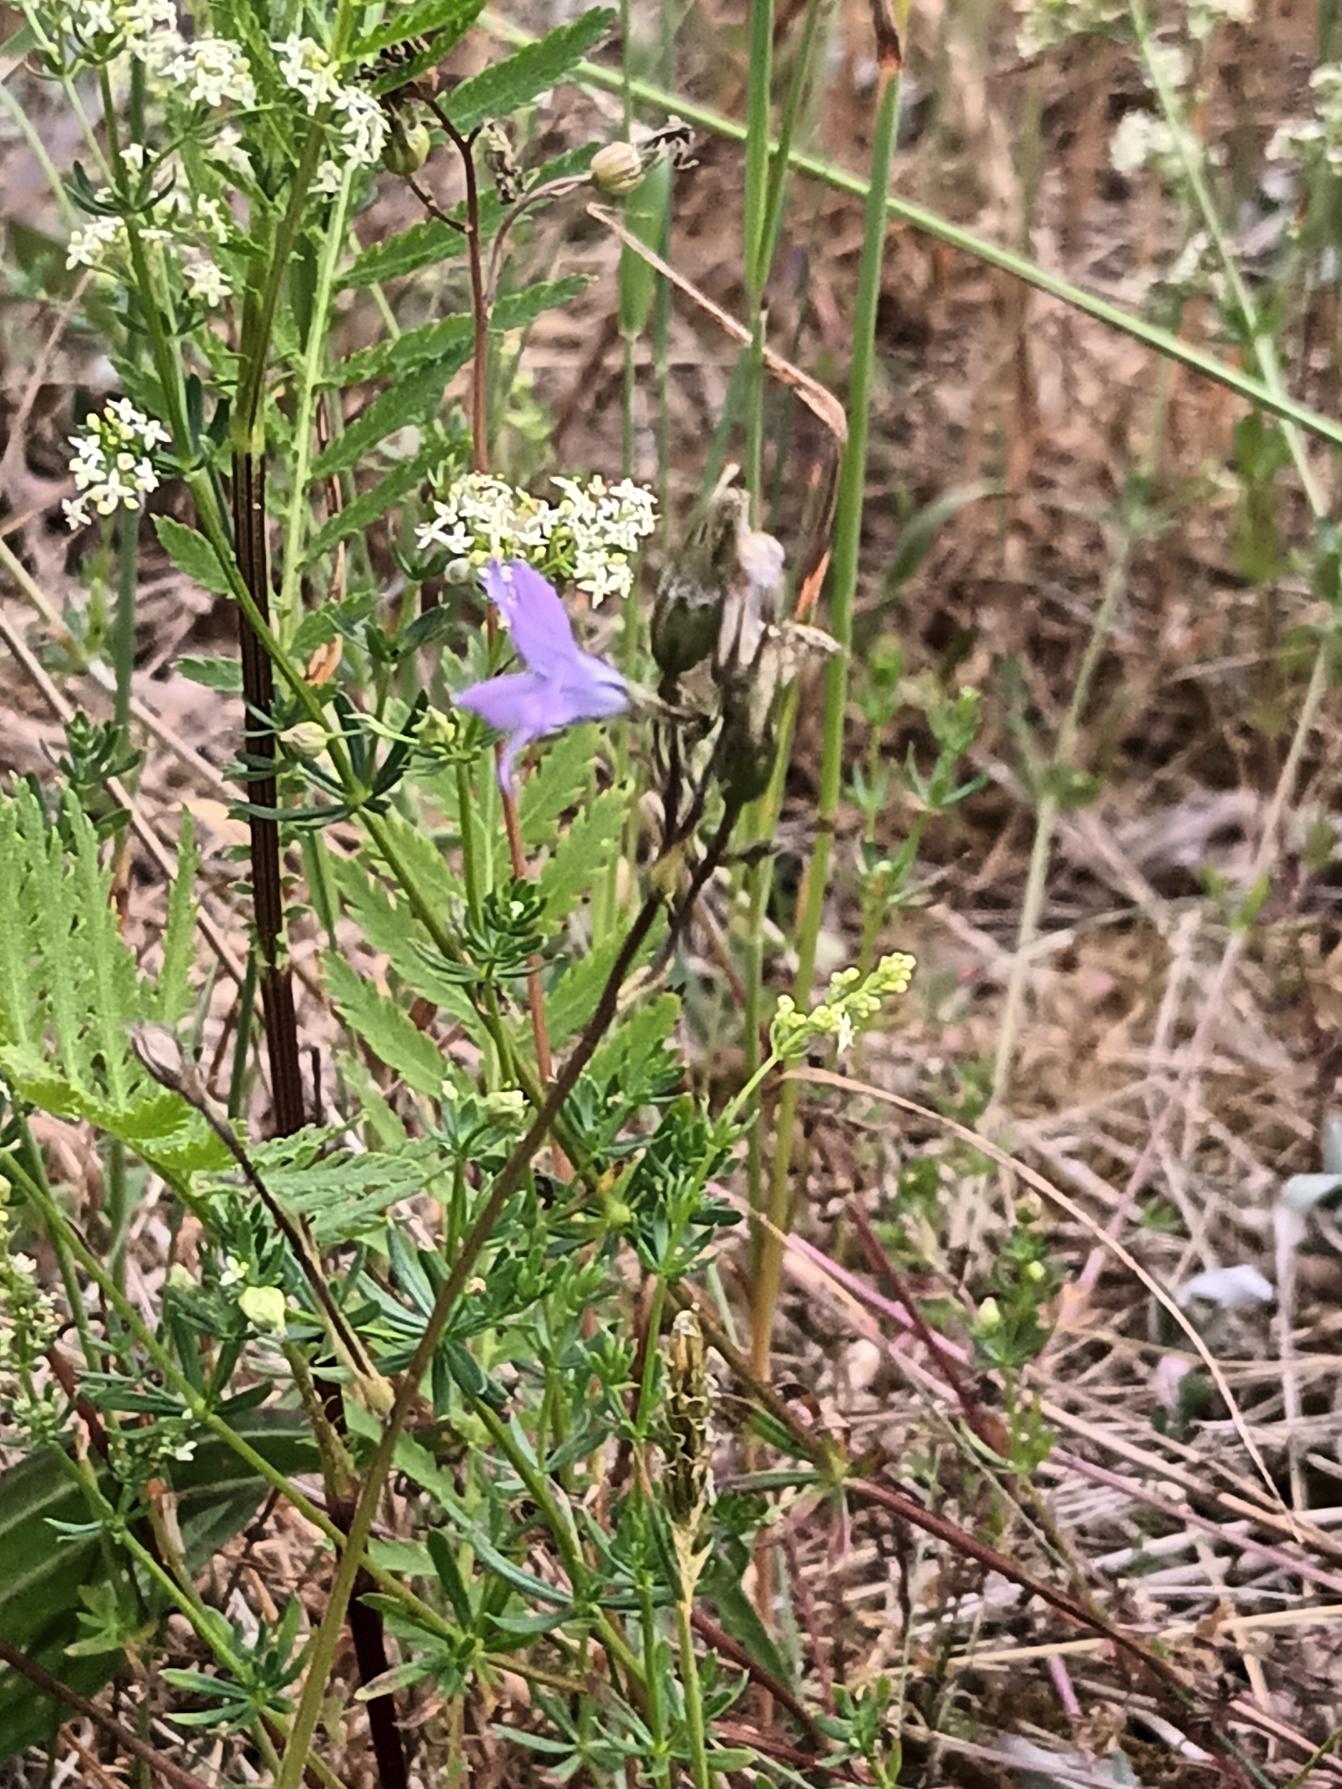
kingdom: Plantae
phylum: Tracheophyta
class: Magnoliopsida
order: Asterales
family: Campanulaceae
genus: Campanula
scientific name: Campanula patula
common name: Eng-klokke
